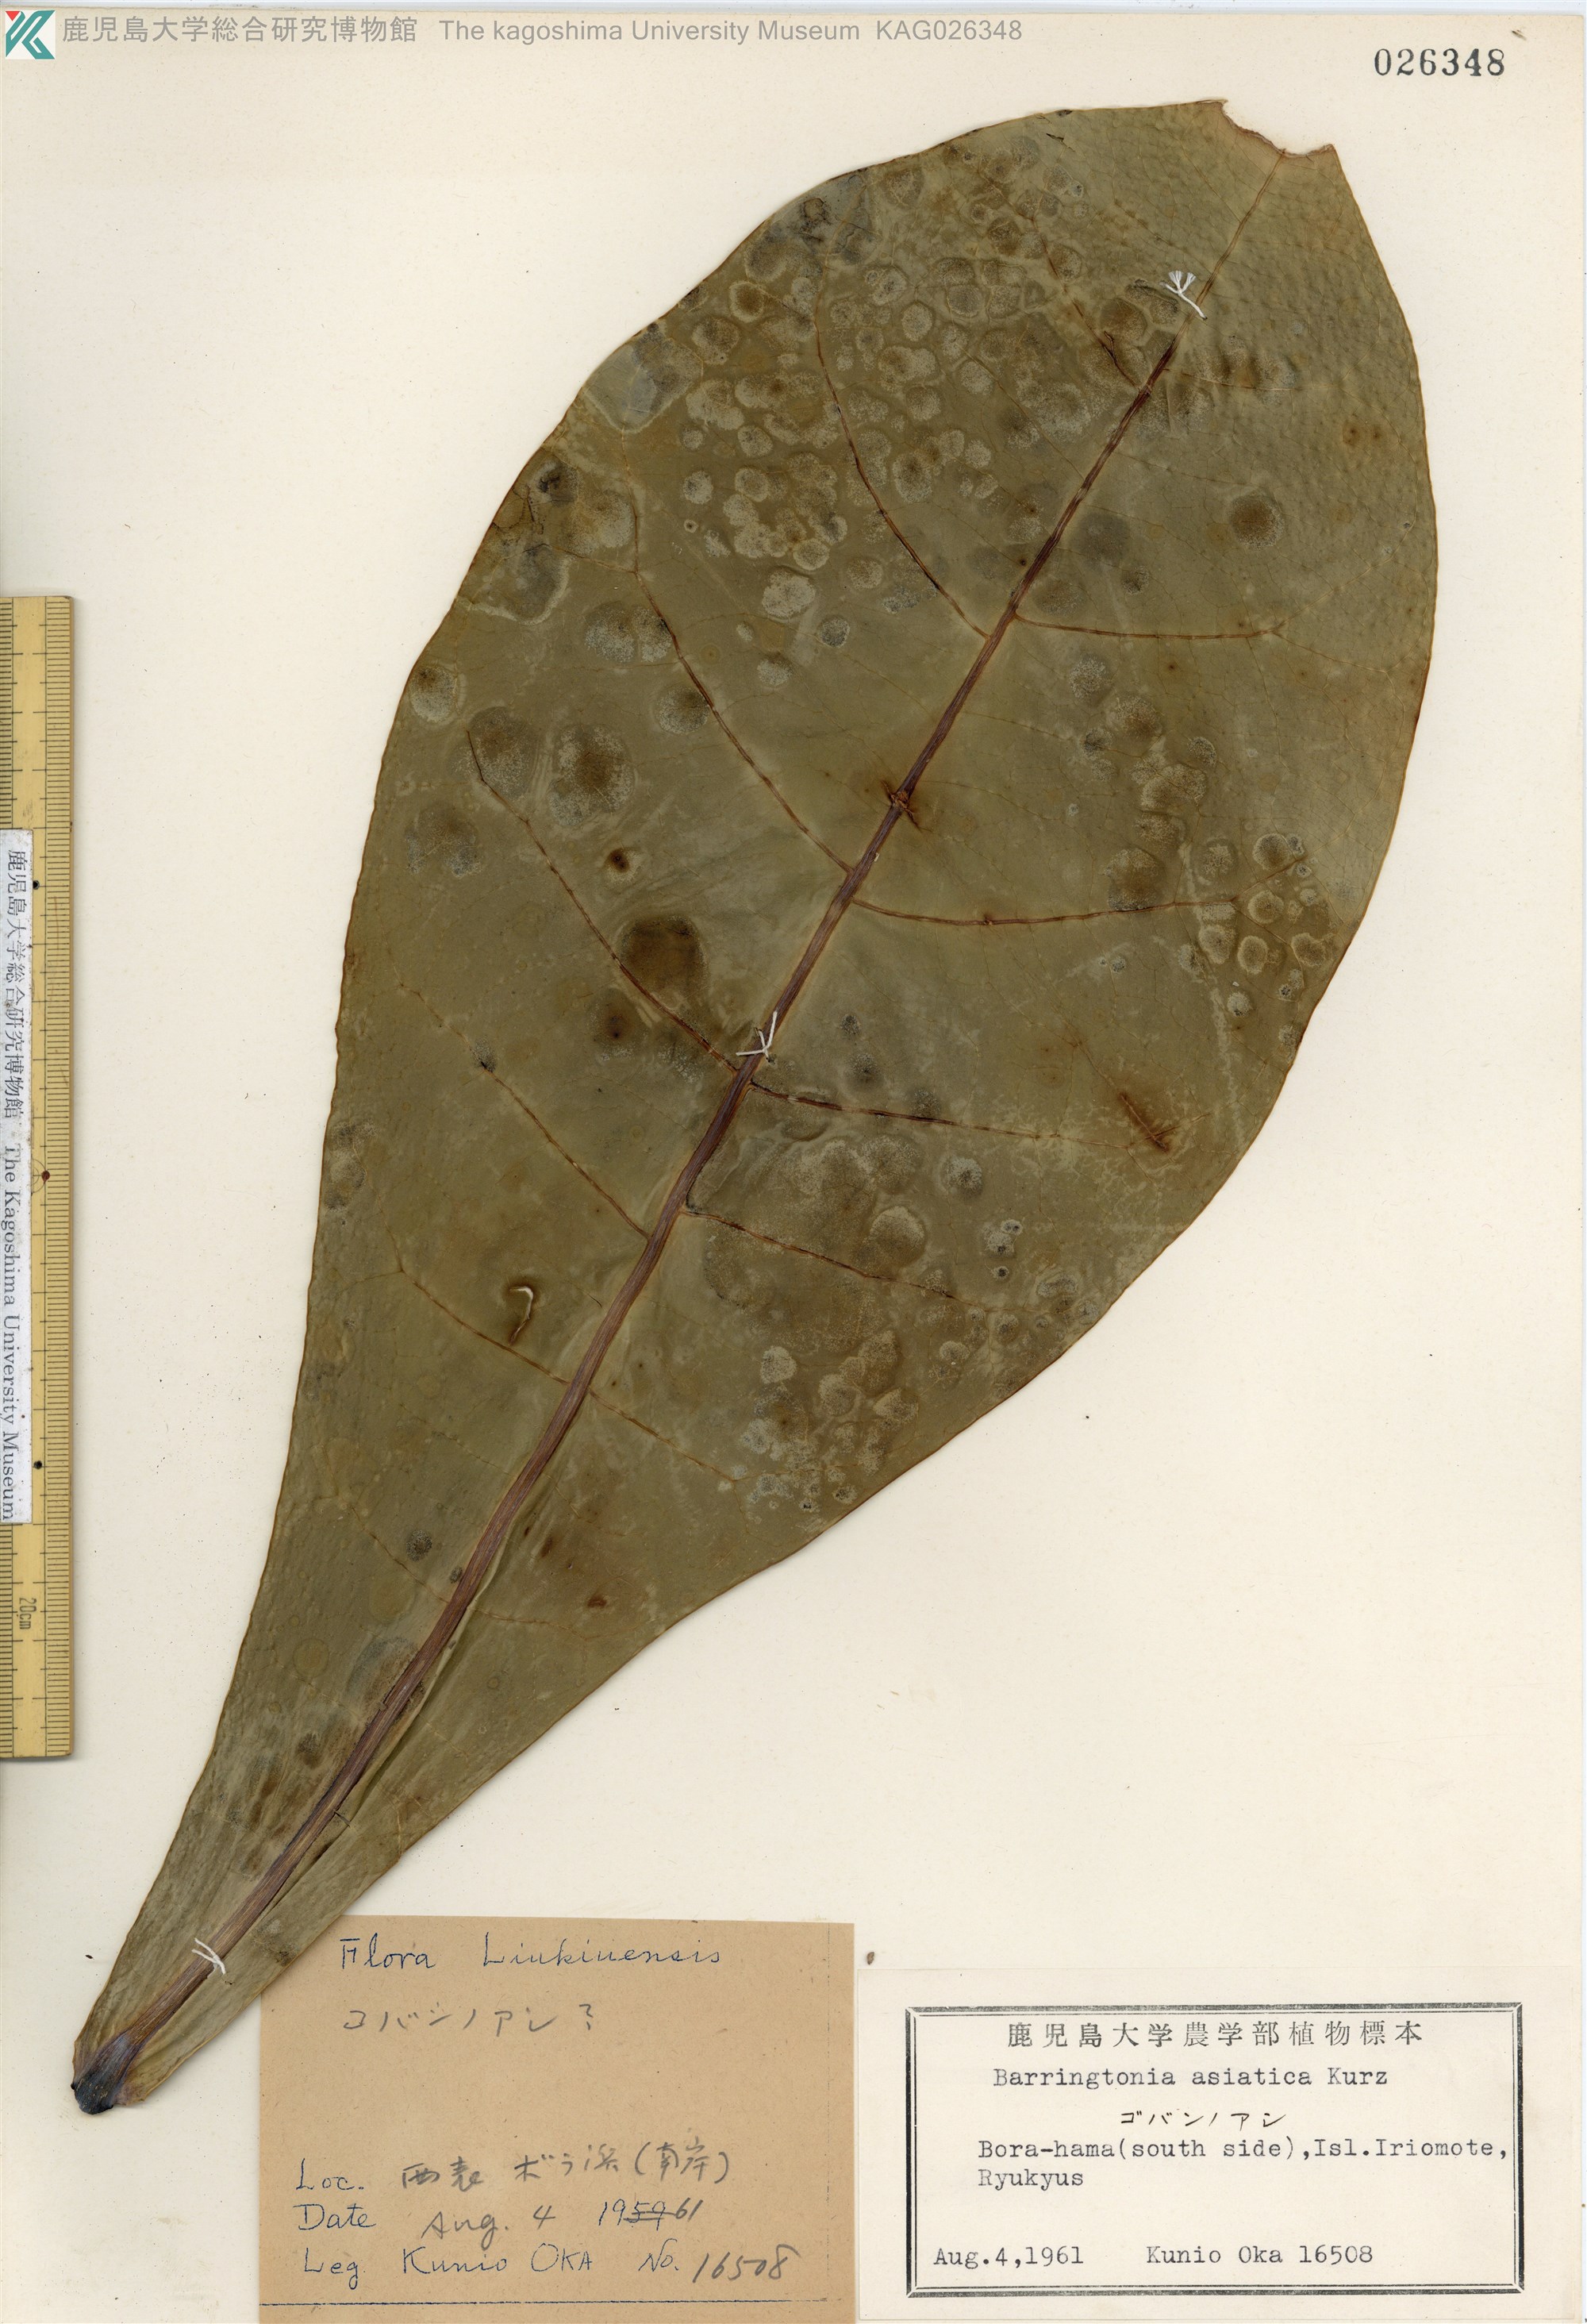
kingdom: Plantae
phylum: Tracheophyta
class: Magnoliopsida
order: Ericales
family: Lecythidaceae
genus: Barringtonia
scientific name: Barringtonia asiatica
